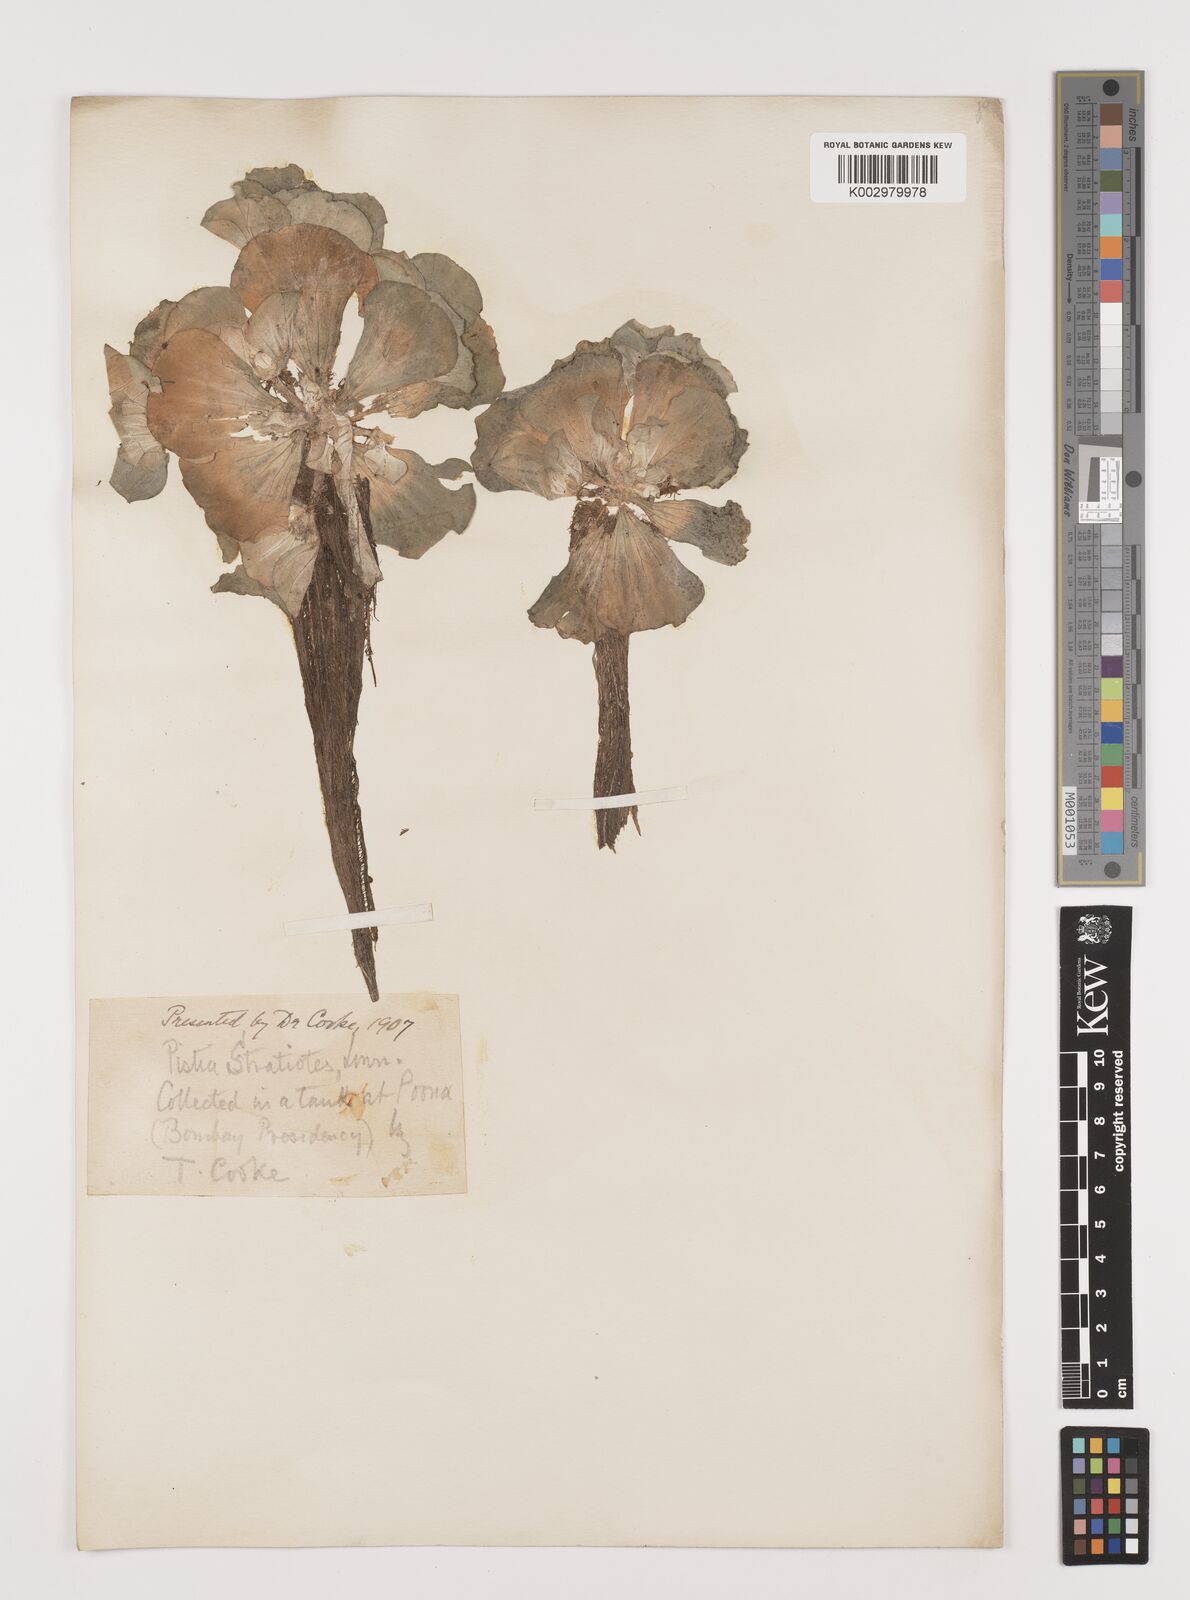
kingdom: Plantae
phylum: Tracheophyta
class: Liliopsida
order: Alismatales
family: Araceae
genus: Pistia
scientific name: Pistia stratiotes
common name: Water lettuce
